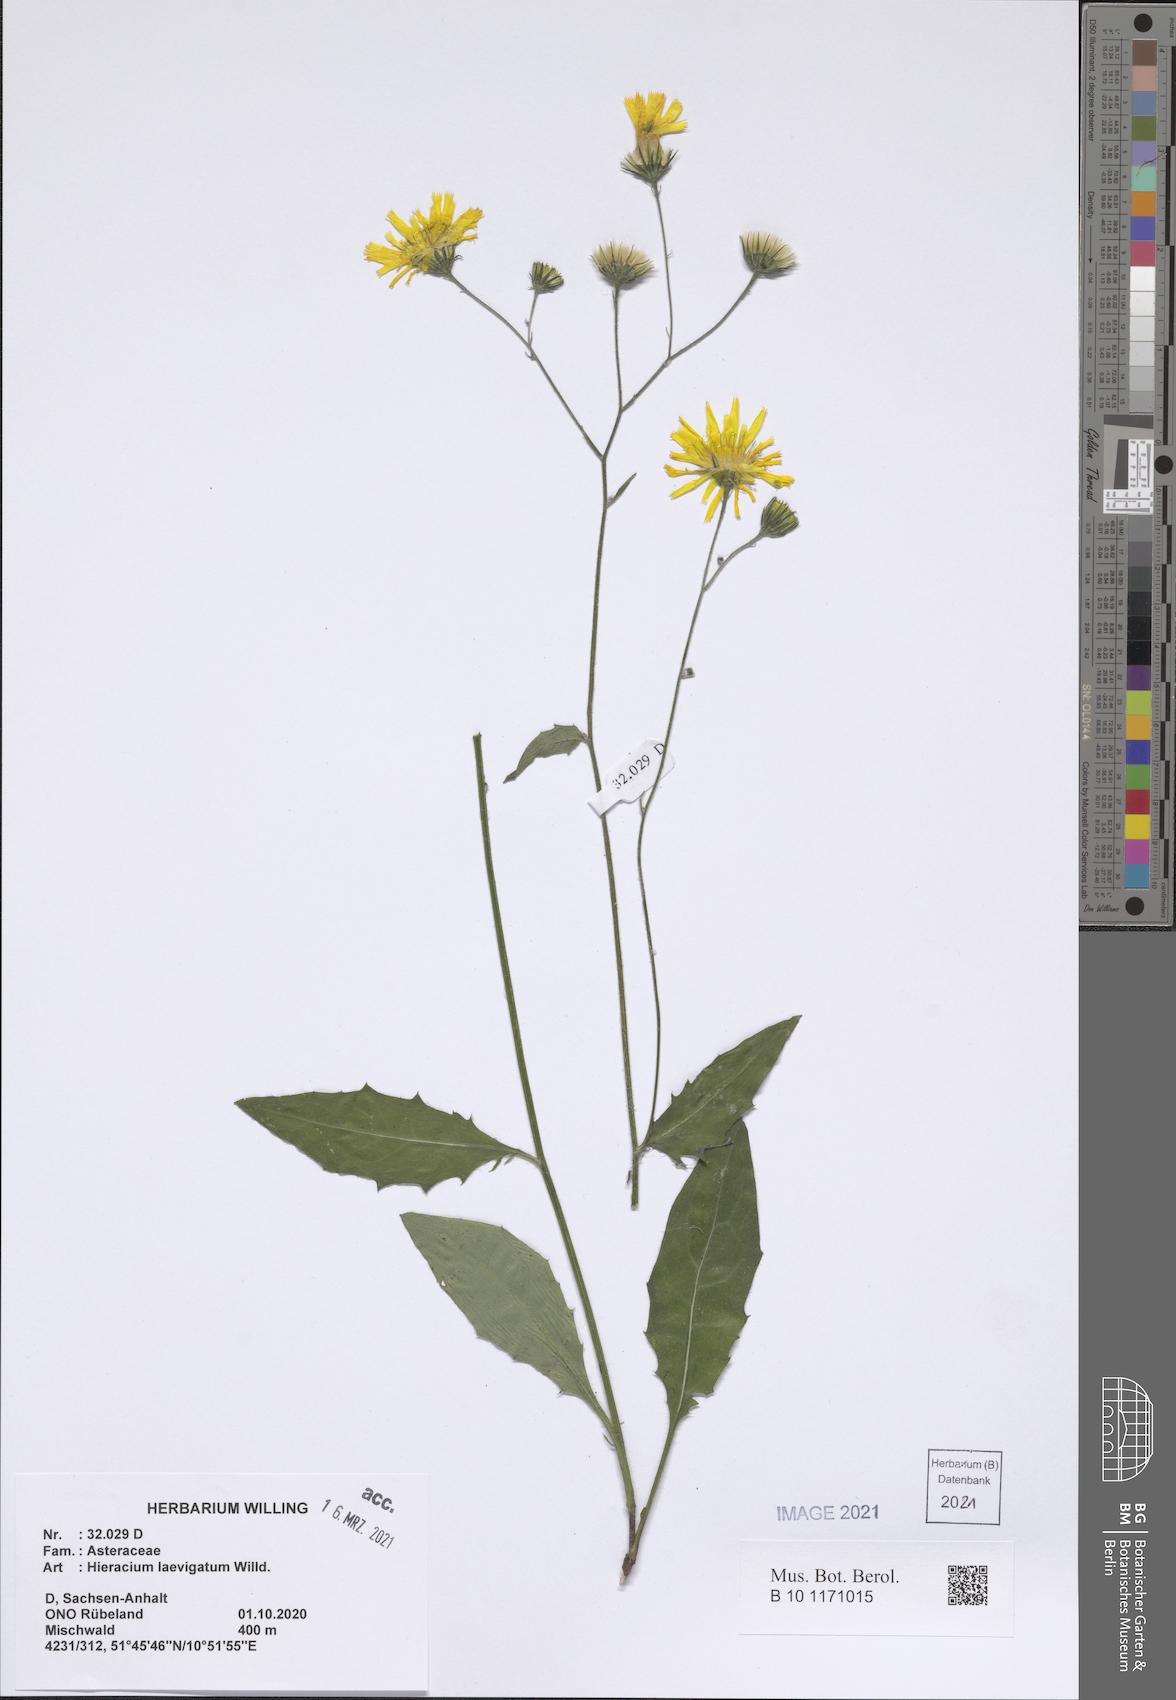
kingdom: Plantae
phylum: Tracheophyta
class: Magnoliopsida
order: Asterales
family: Asteraceae
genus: Hieracium
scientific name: Hieracium laevigatum
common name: Smooth hawkweed
